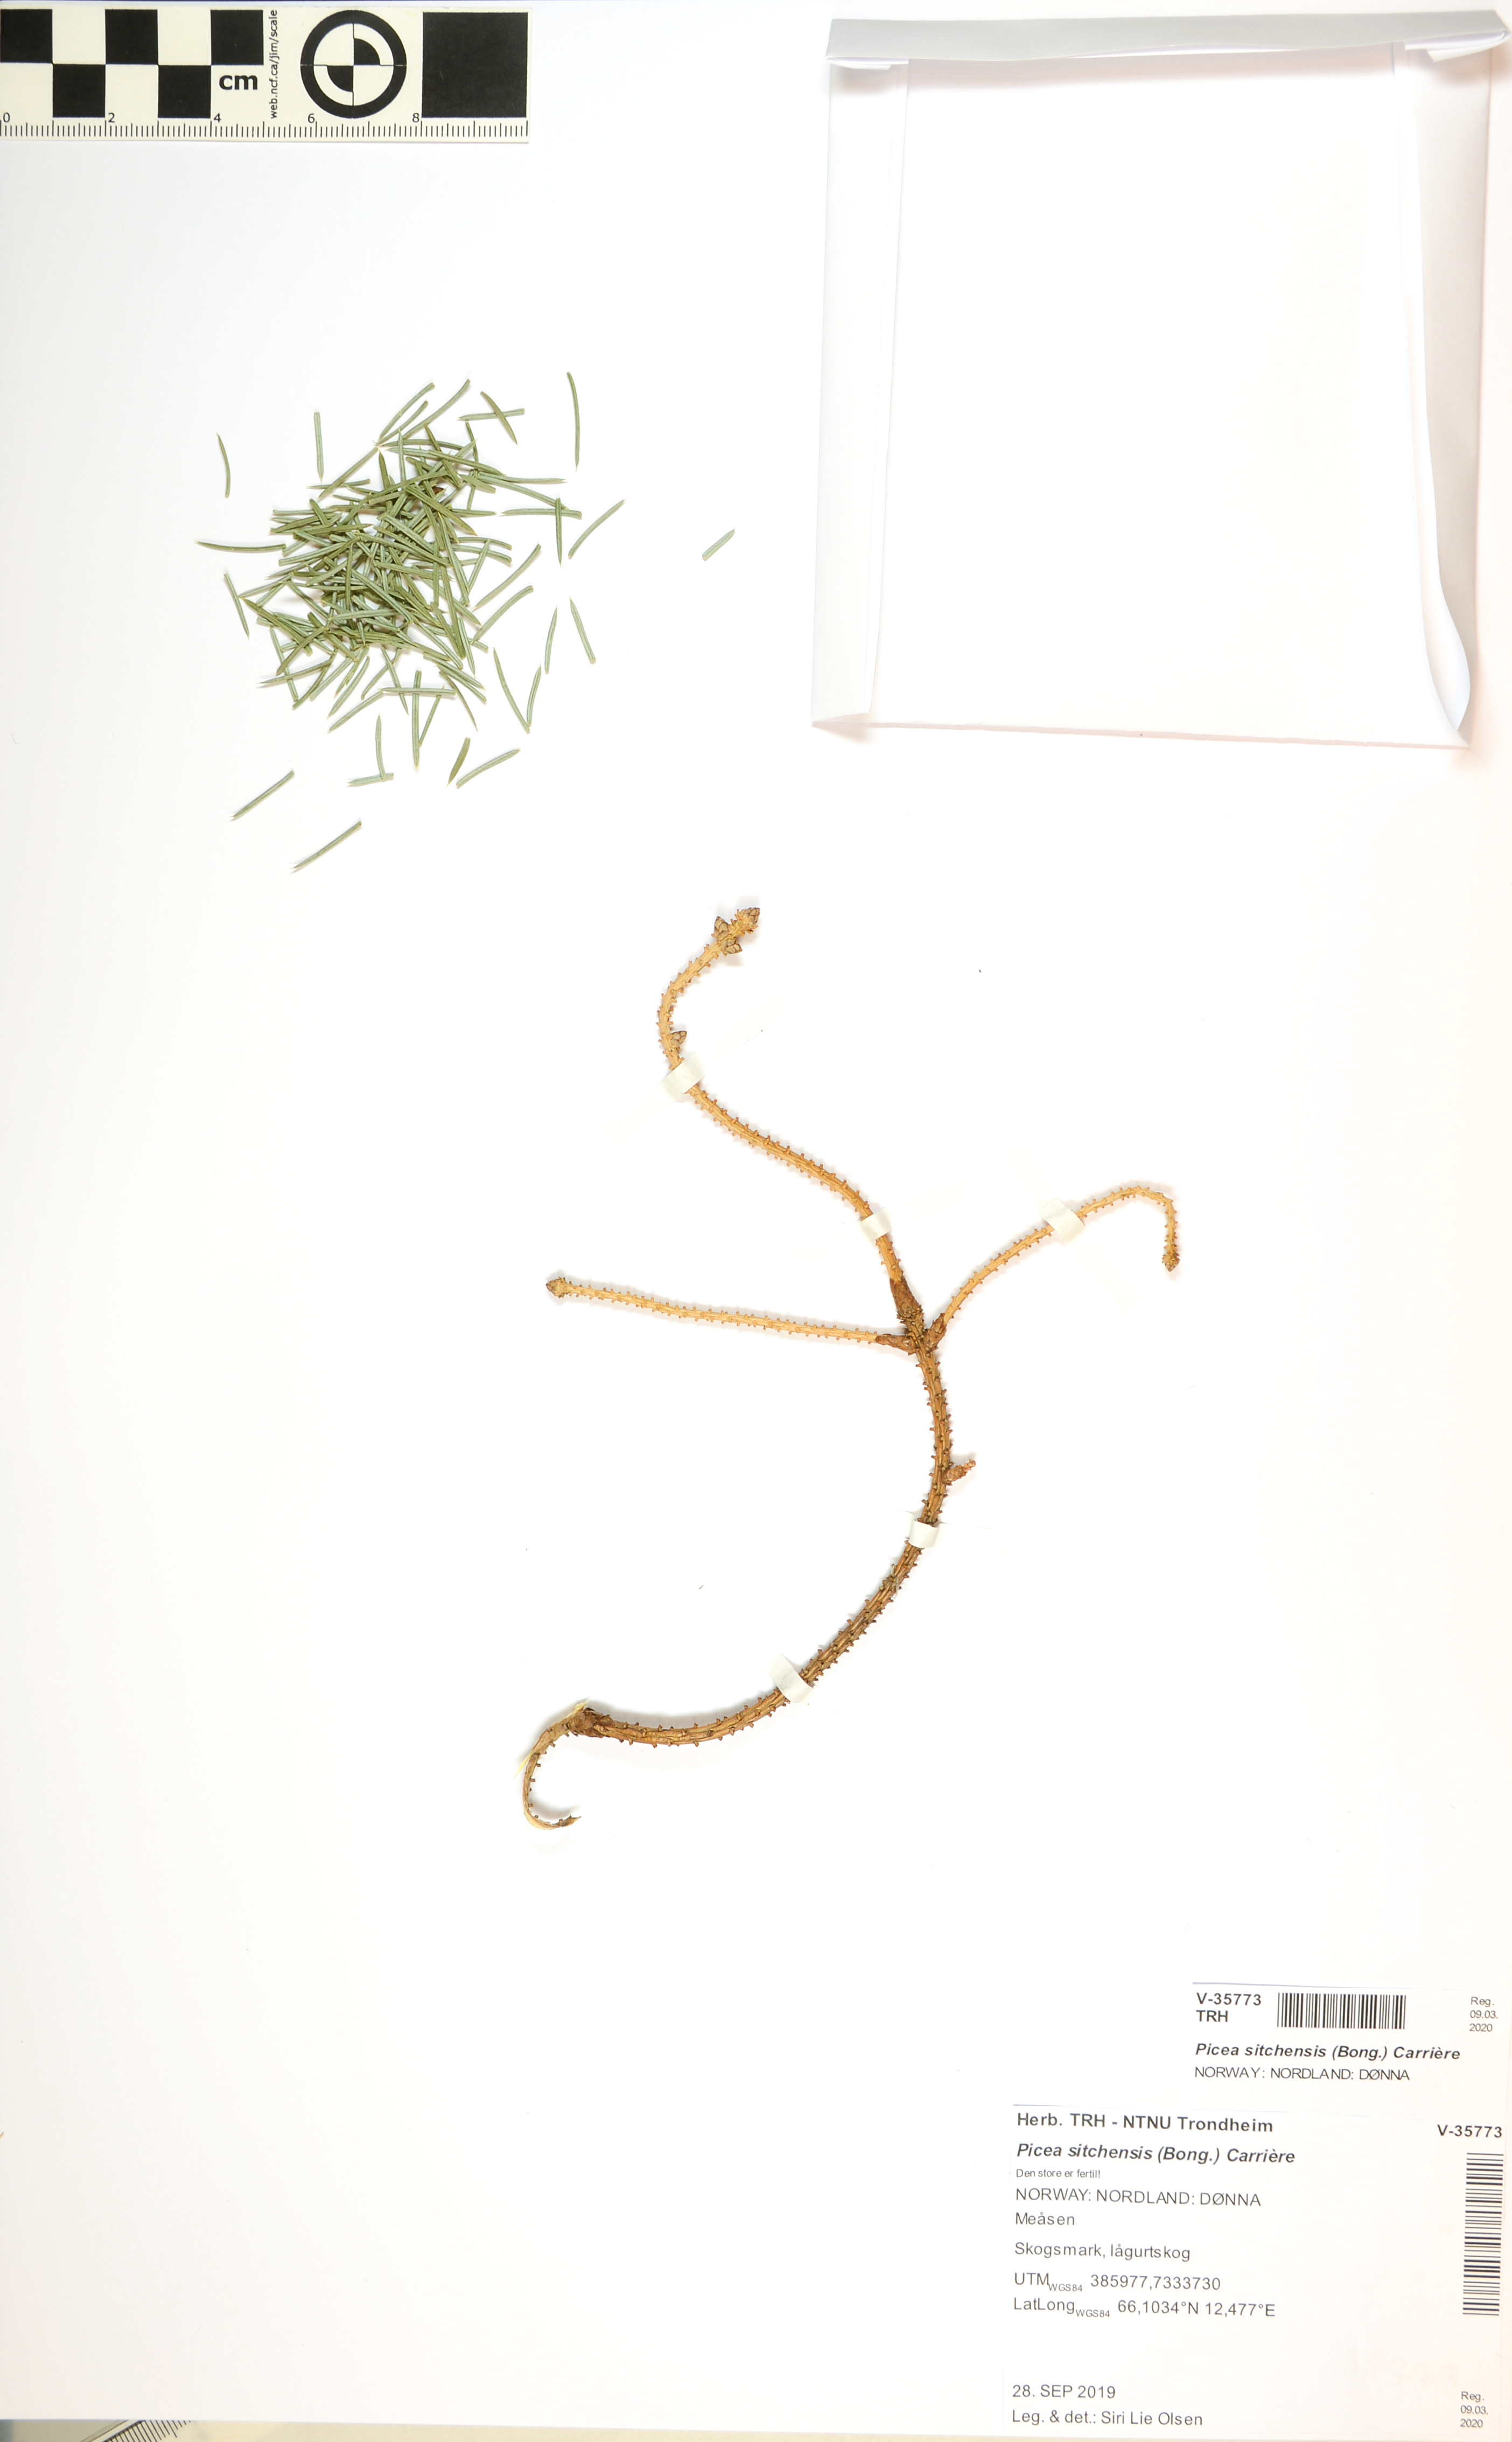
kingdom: Plantae
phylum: Tracheophyta
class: Pinopsida
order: Pinales
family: Pinaceae
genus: Picea
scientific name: Picea sitchensis
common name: Sitka spruce
